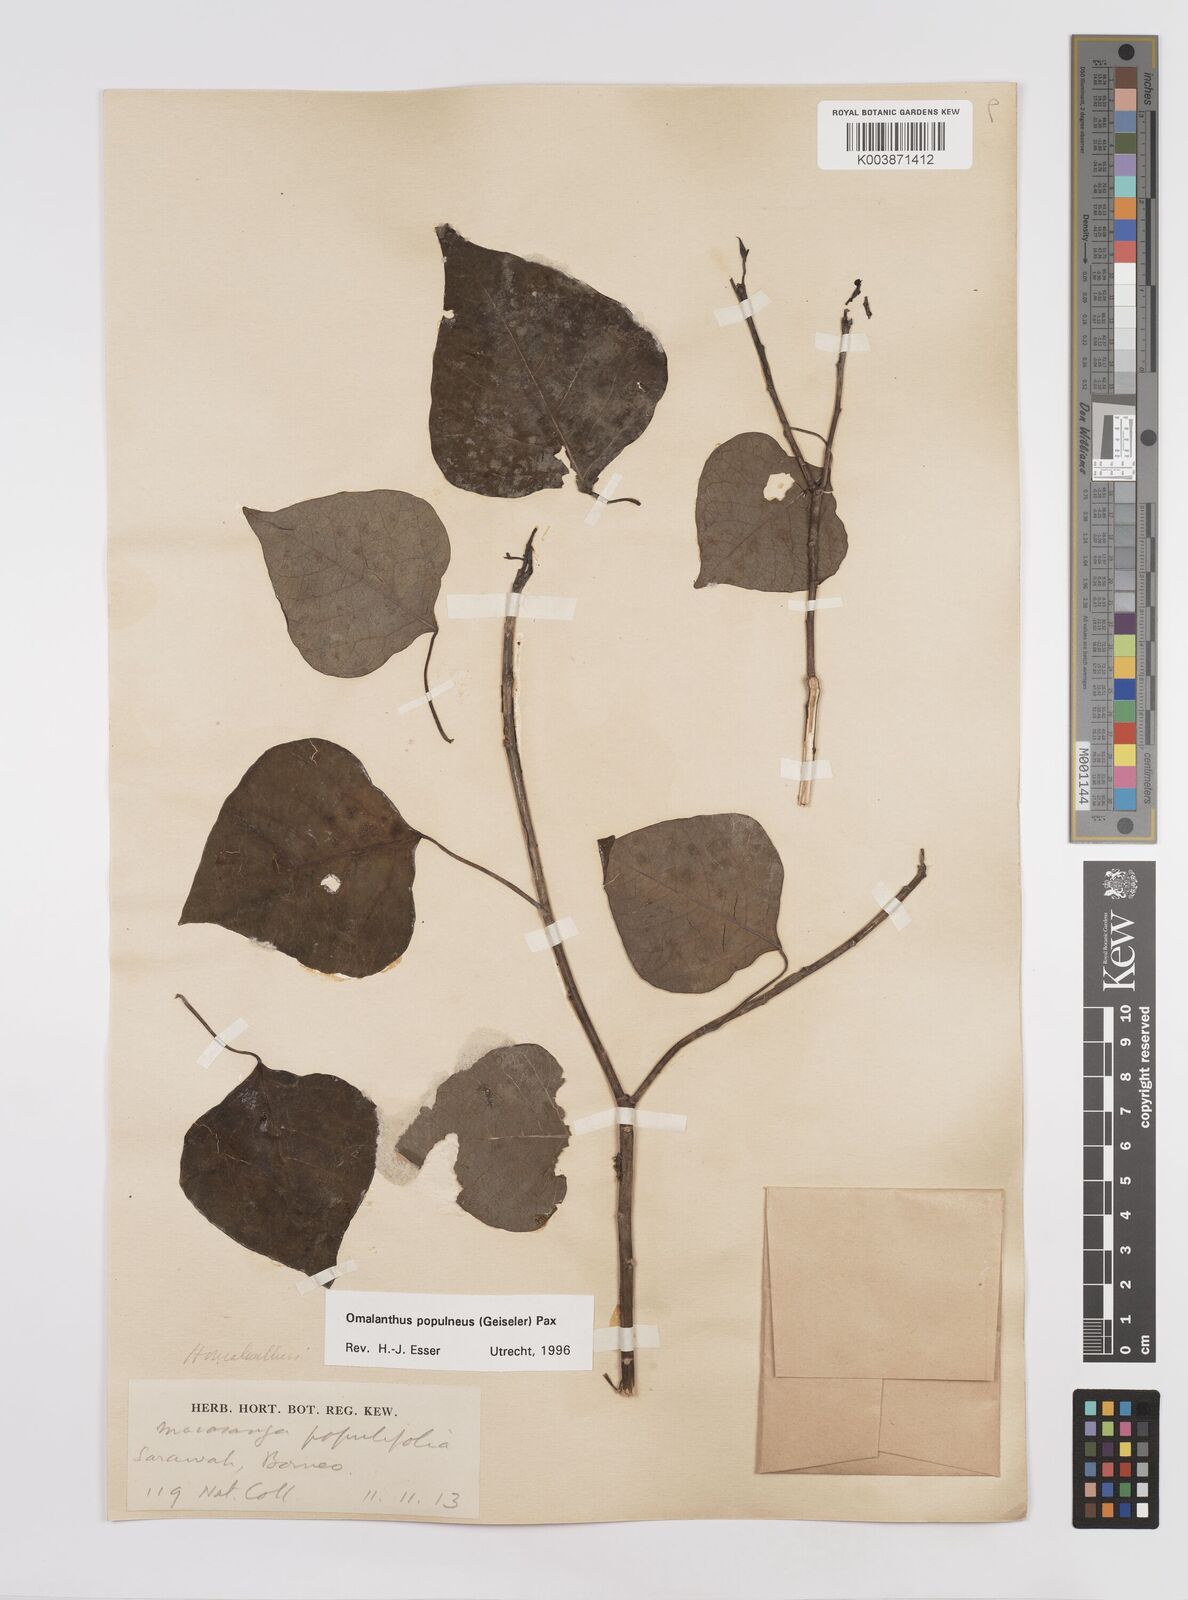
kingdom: Plantae
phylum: Tracheophyta
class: Magnoliopsida
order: Malpighiales
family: Euphorbiaceae
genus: Homalanthus
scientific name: Homalanthus populneus
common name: Spurge
